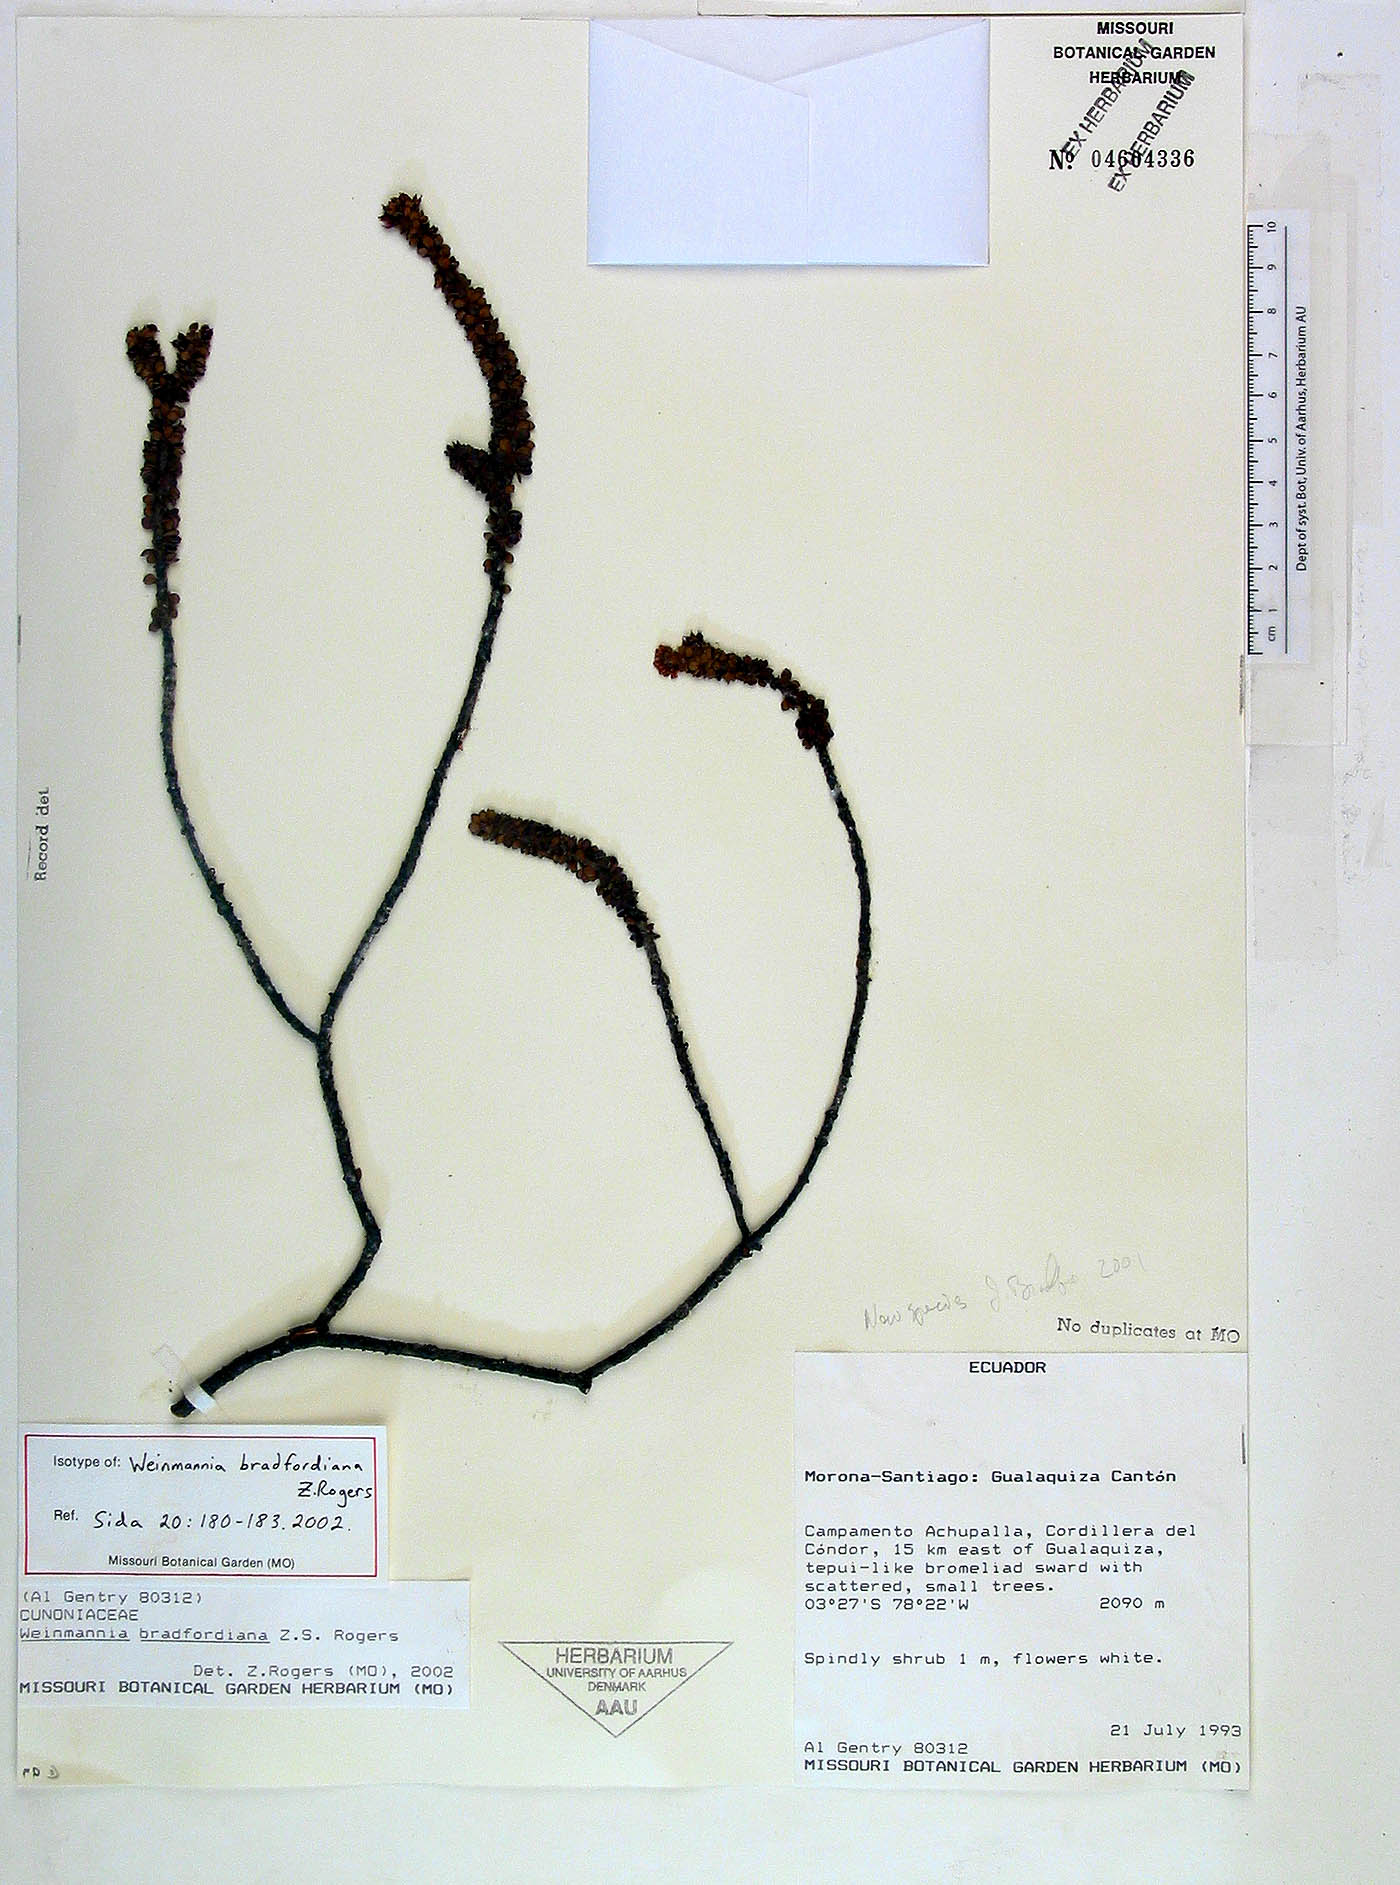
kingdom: Plantae
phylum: Tracheophyta
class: Magnoliopsida
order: Oxalidales
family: Cunoniaceae
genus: Weinmannia
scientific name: Weinmannia bradfordiana
